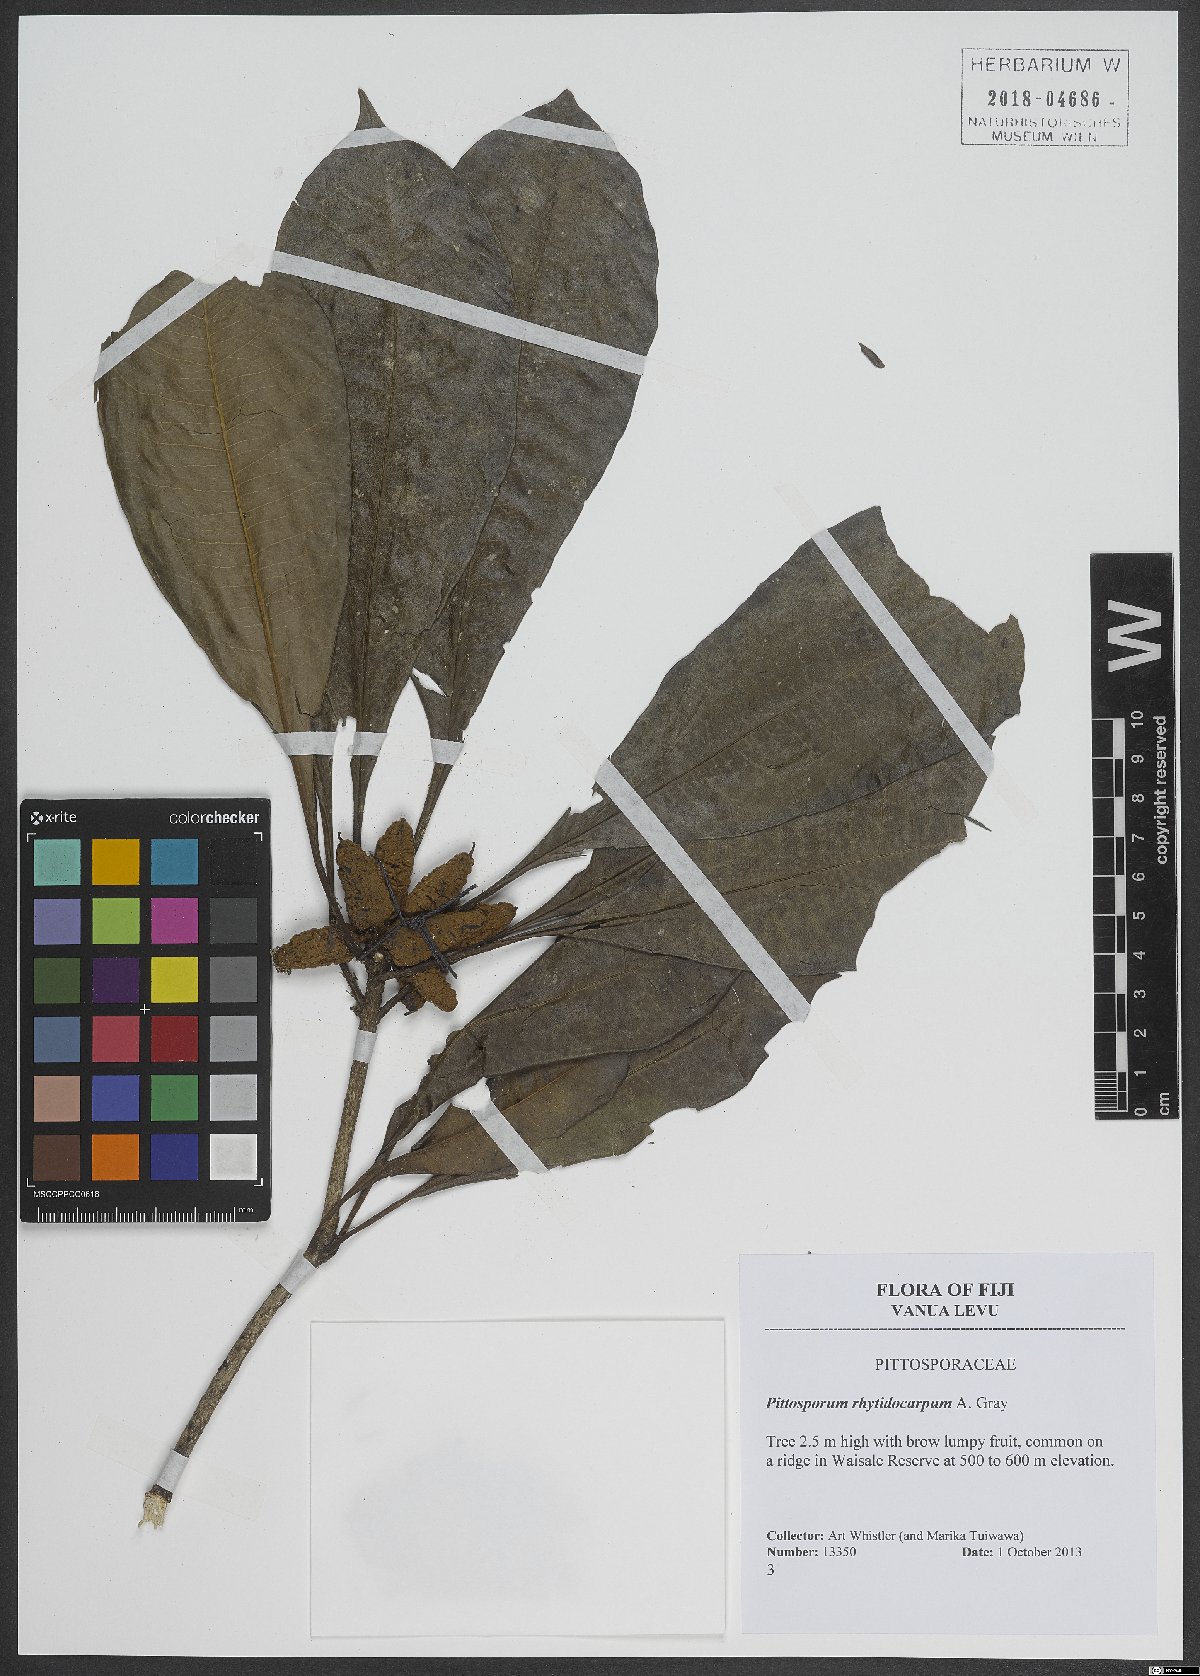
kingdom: Plantae
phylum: Tracheophyta
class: Magnoliopsida
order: Apiales
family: Pittosporaceae
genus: Pittosporum
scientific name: Pittosporum rhytidocarpum
